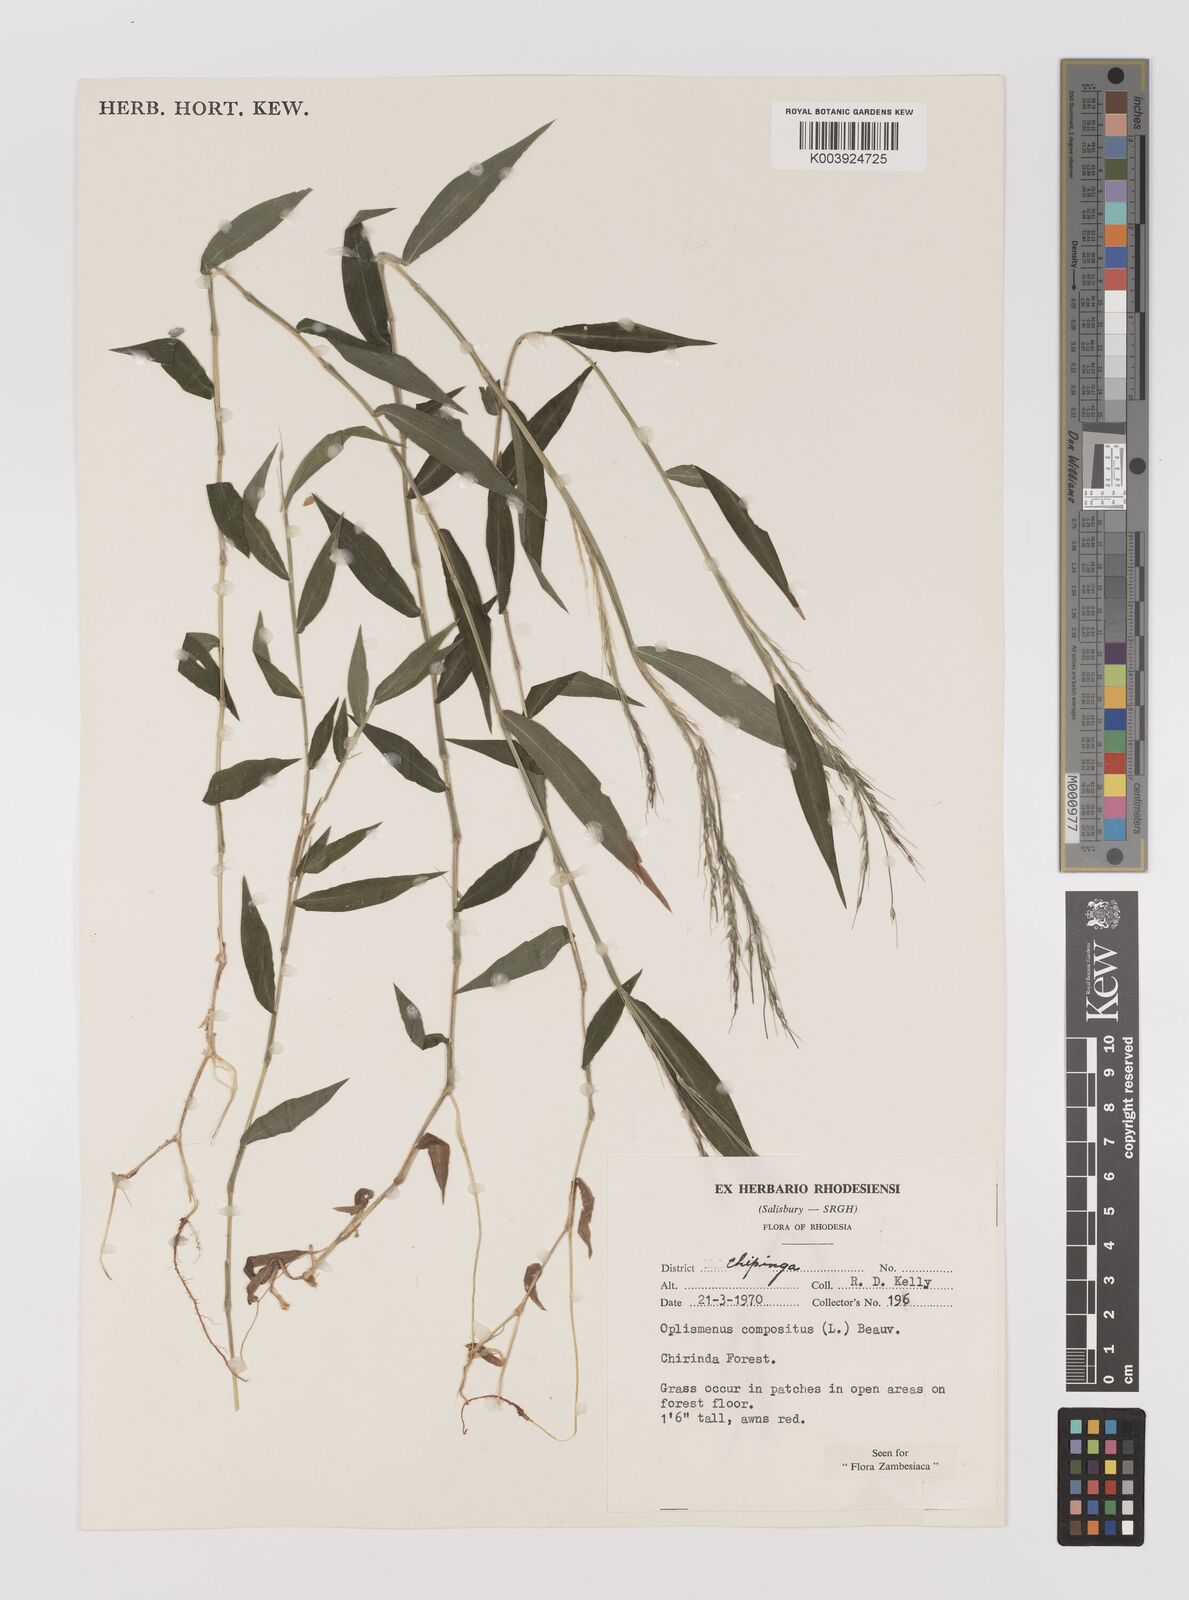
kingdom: Plantae
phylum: Tracheophyta
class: Liliopsida
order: Poales
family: Poaceae
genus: Oplismenus
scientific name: Oplismenus compositus
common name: Running mountain grass
